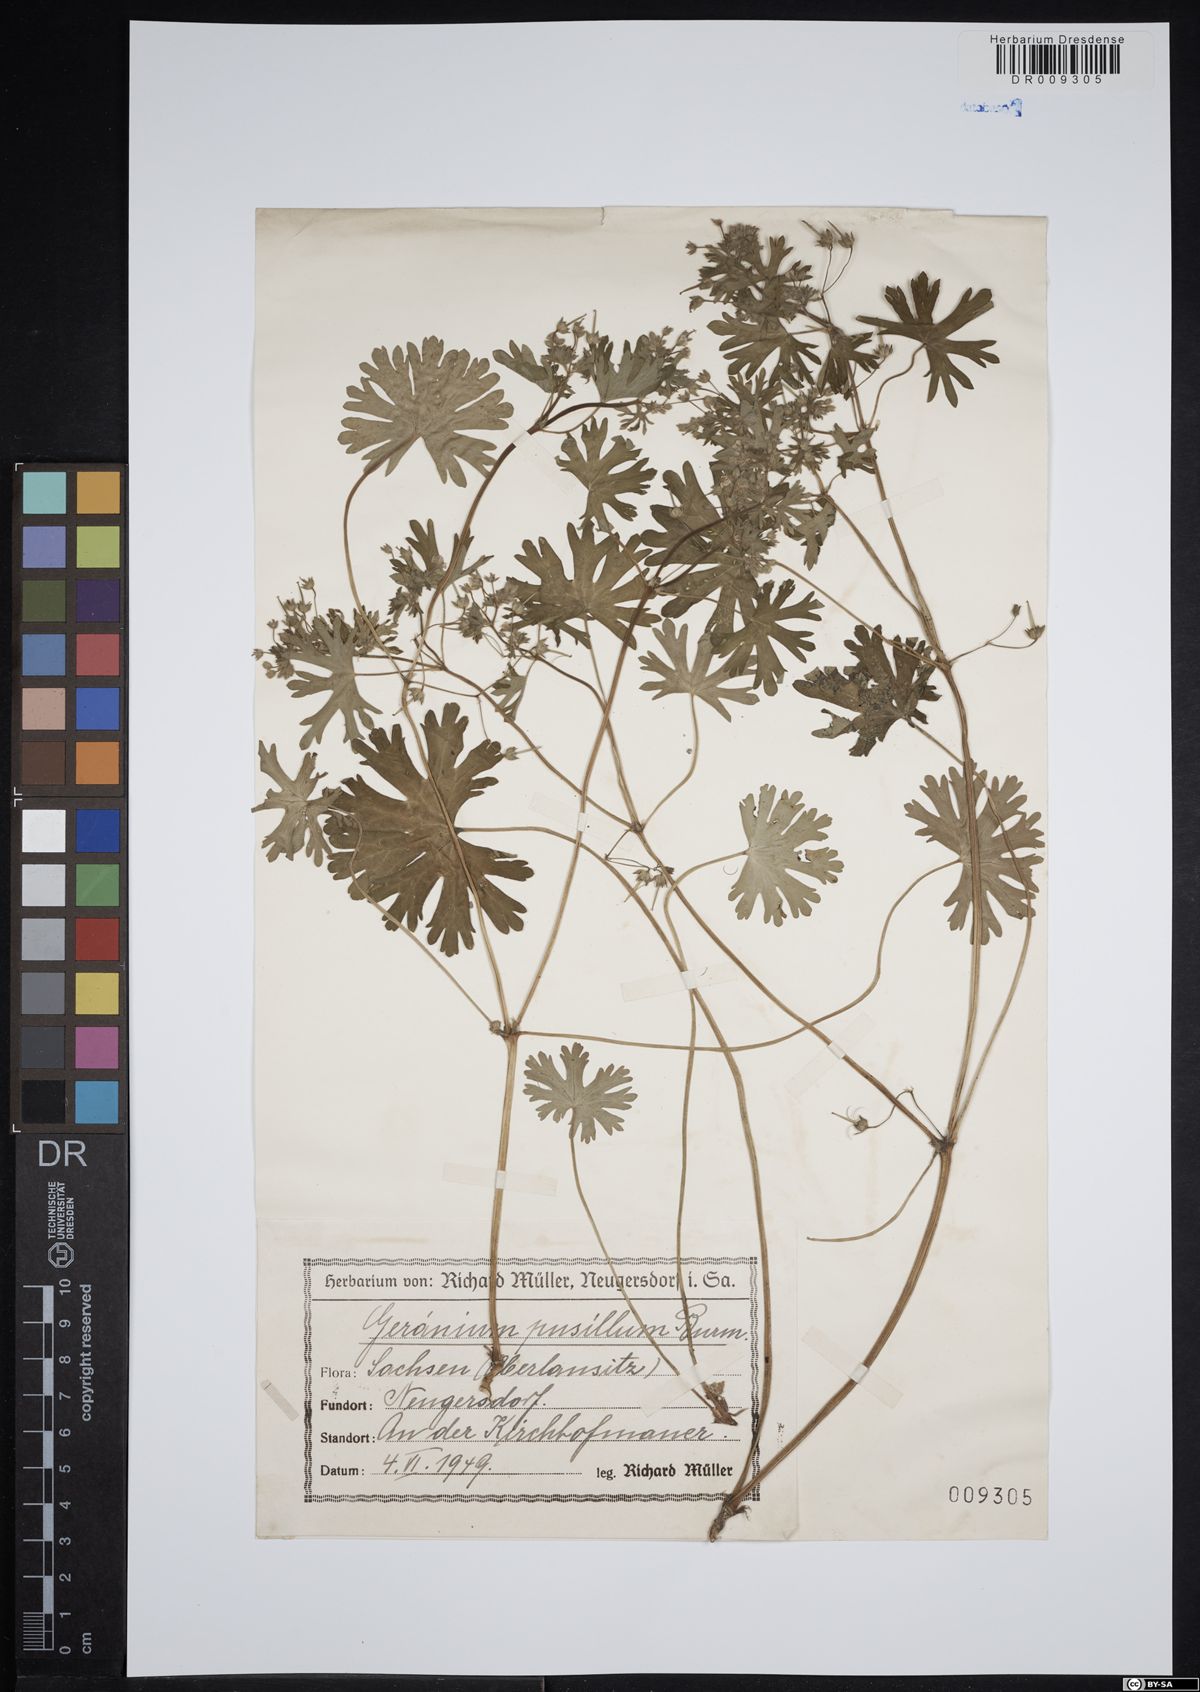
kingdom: Plantae
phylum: Tracheophyta
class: Magnoliopsida
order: Geraniales
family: Geraniaceae
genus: Geranium
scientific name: Geranium pusillum
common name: Small geranium
